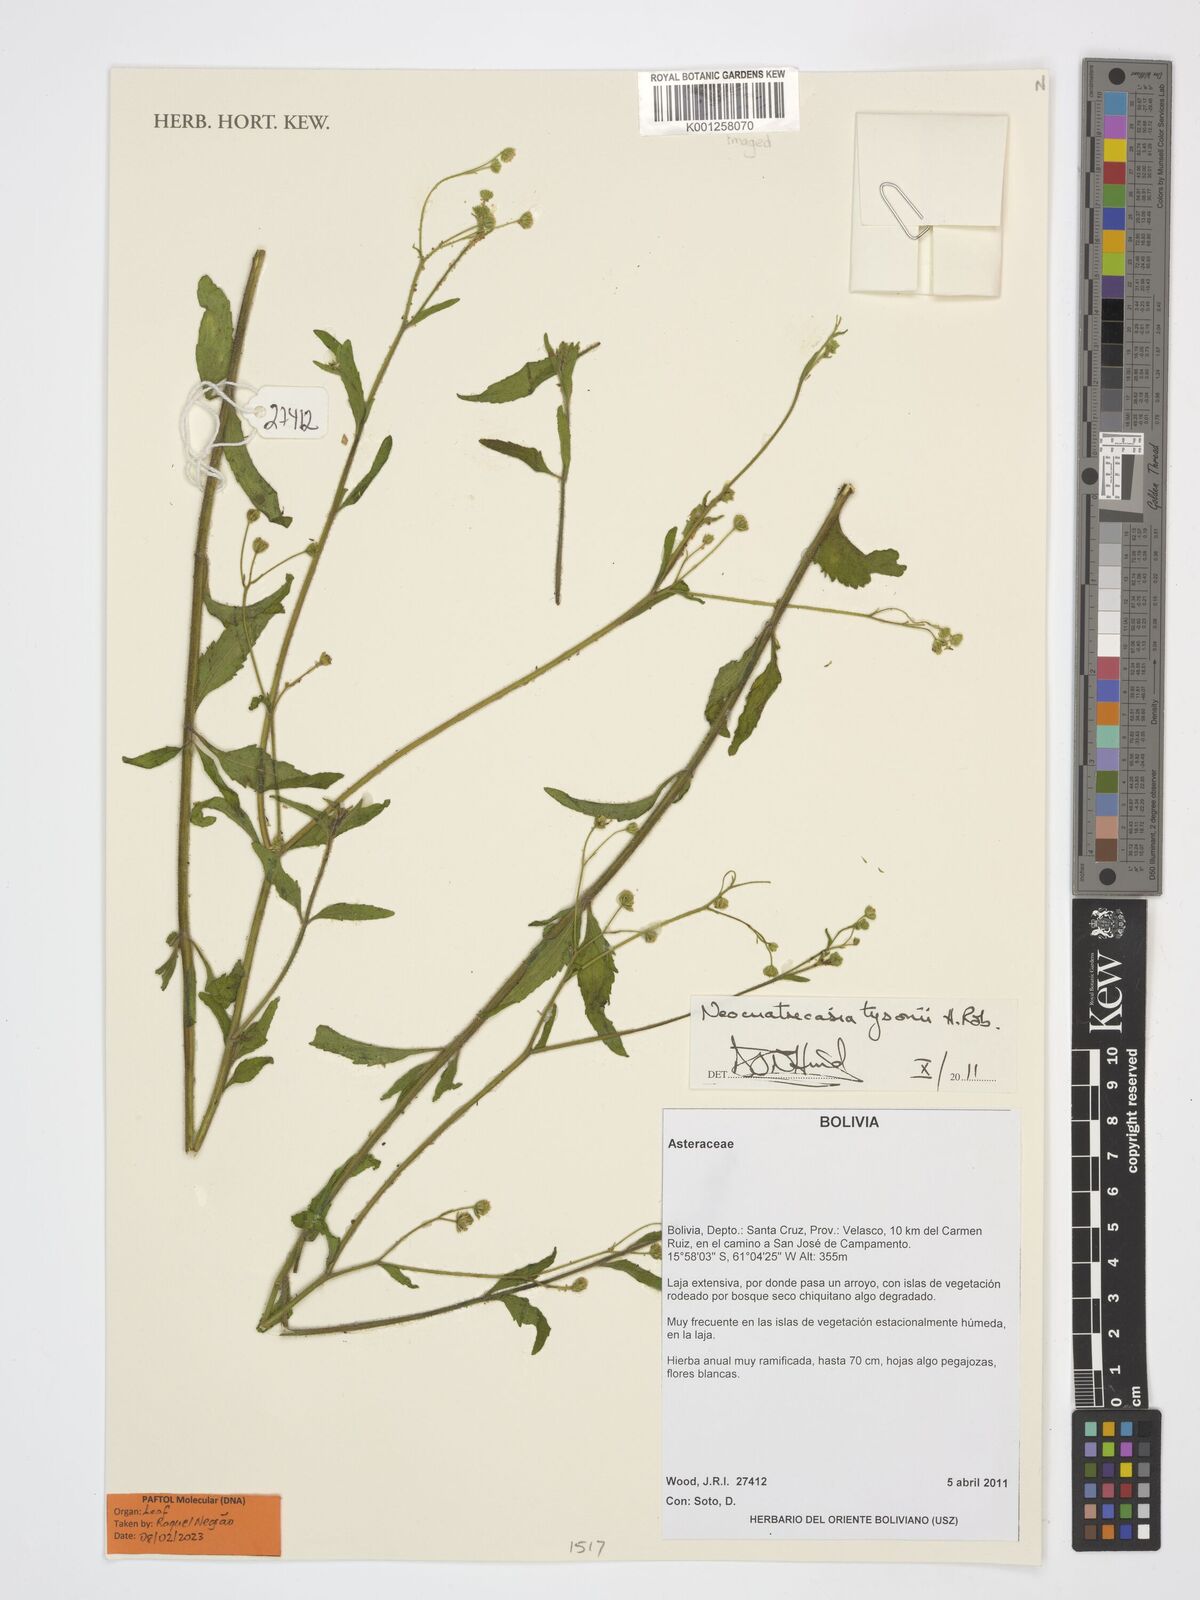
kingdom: Plantae
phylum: Tracheophyta
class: Magnoliopsida
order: Asterales
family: Asteraceae
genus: Neocuatrecasia
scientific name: Neocuatrecasia tysonii
